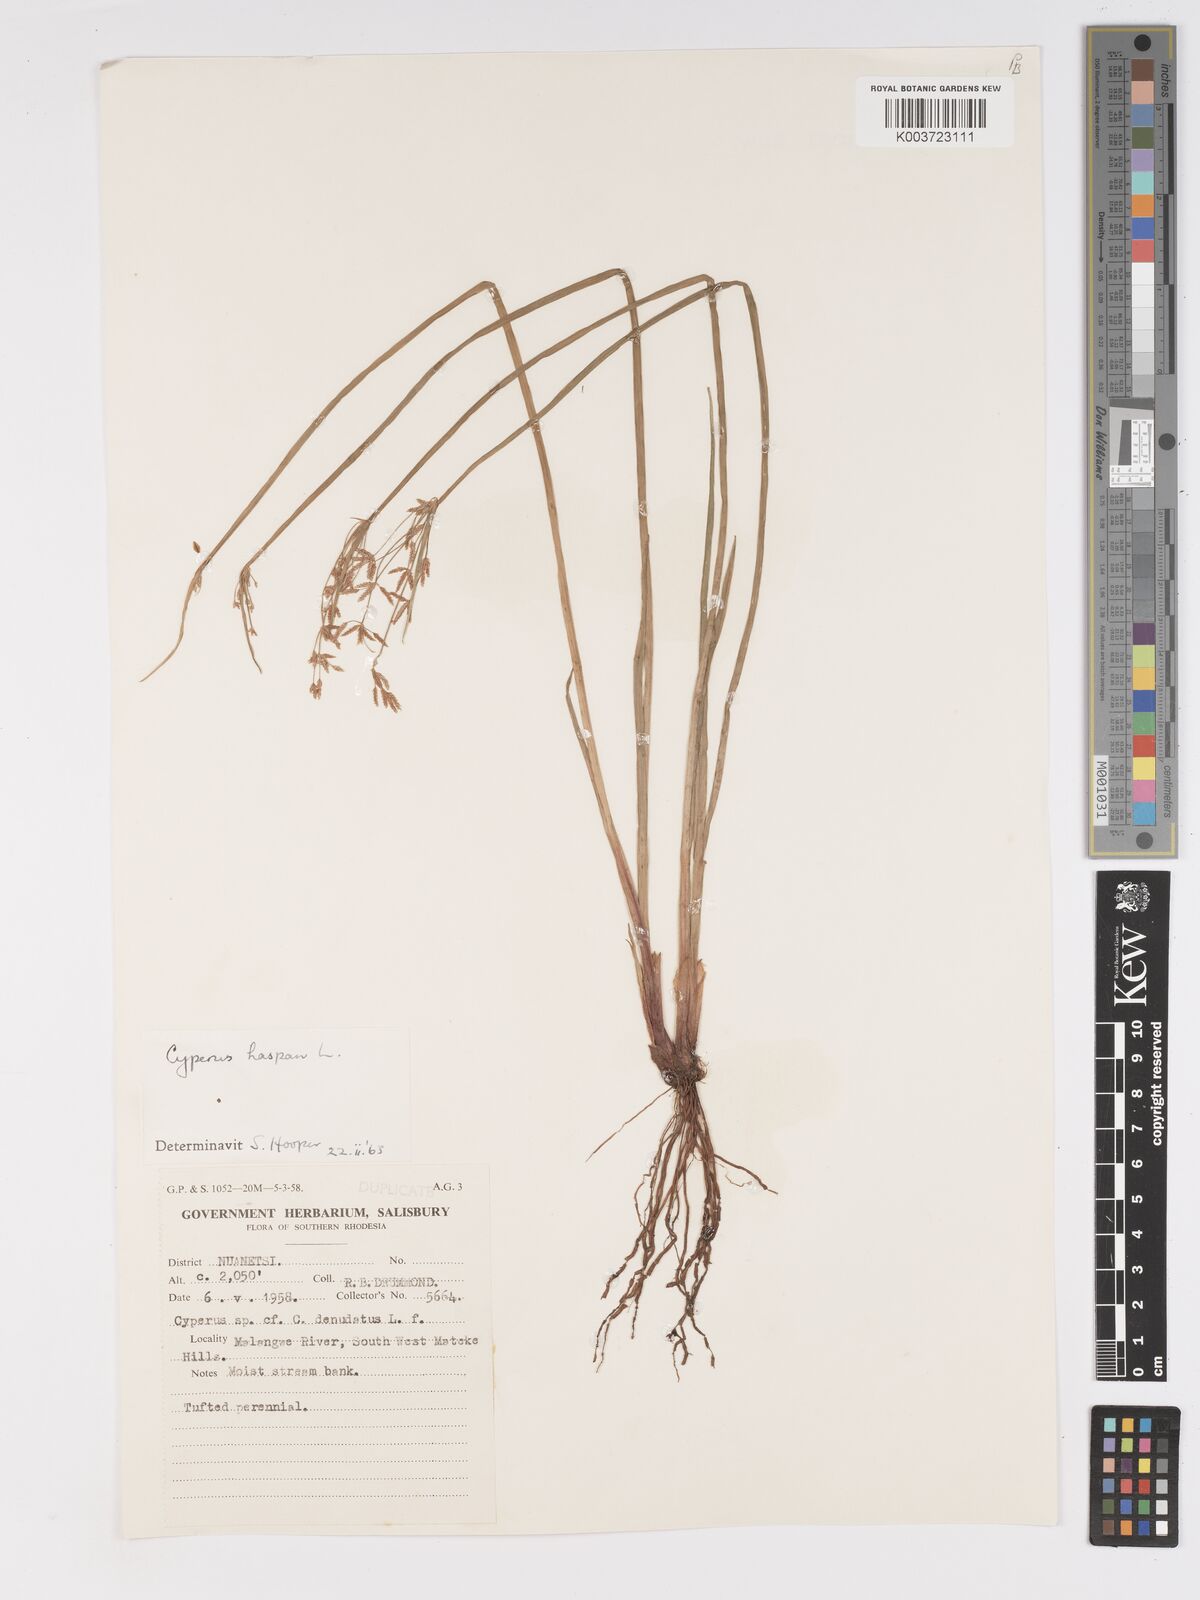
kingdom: Plantae
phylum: Tracheophyta
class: Liliopsida
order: Poales
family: Cyperaceae
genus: Cyperus
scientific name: Cyperus haspan
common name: Haspan flatsedge
